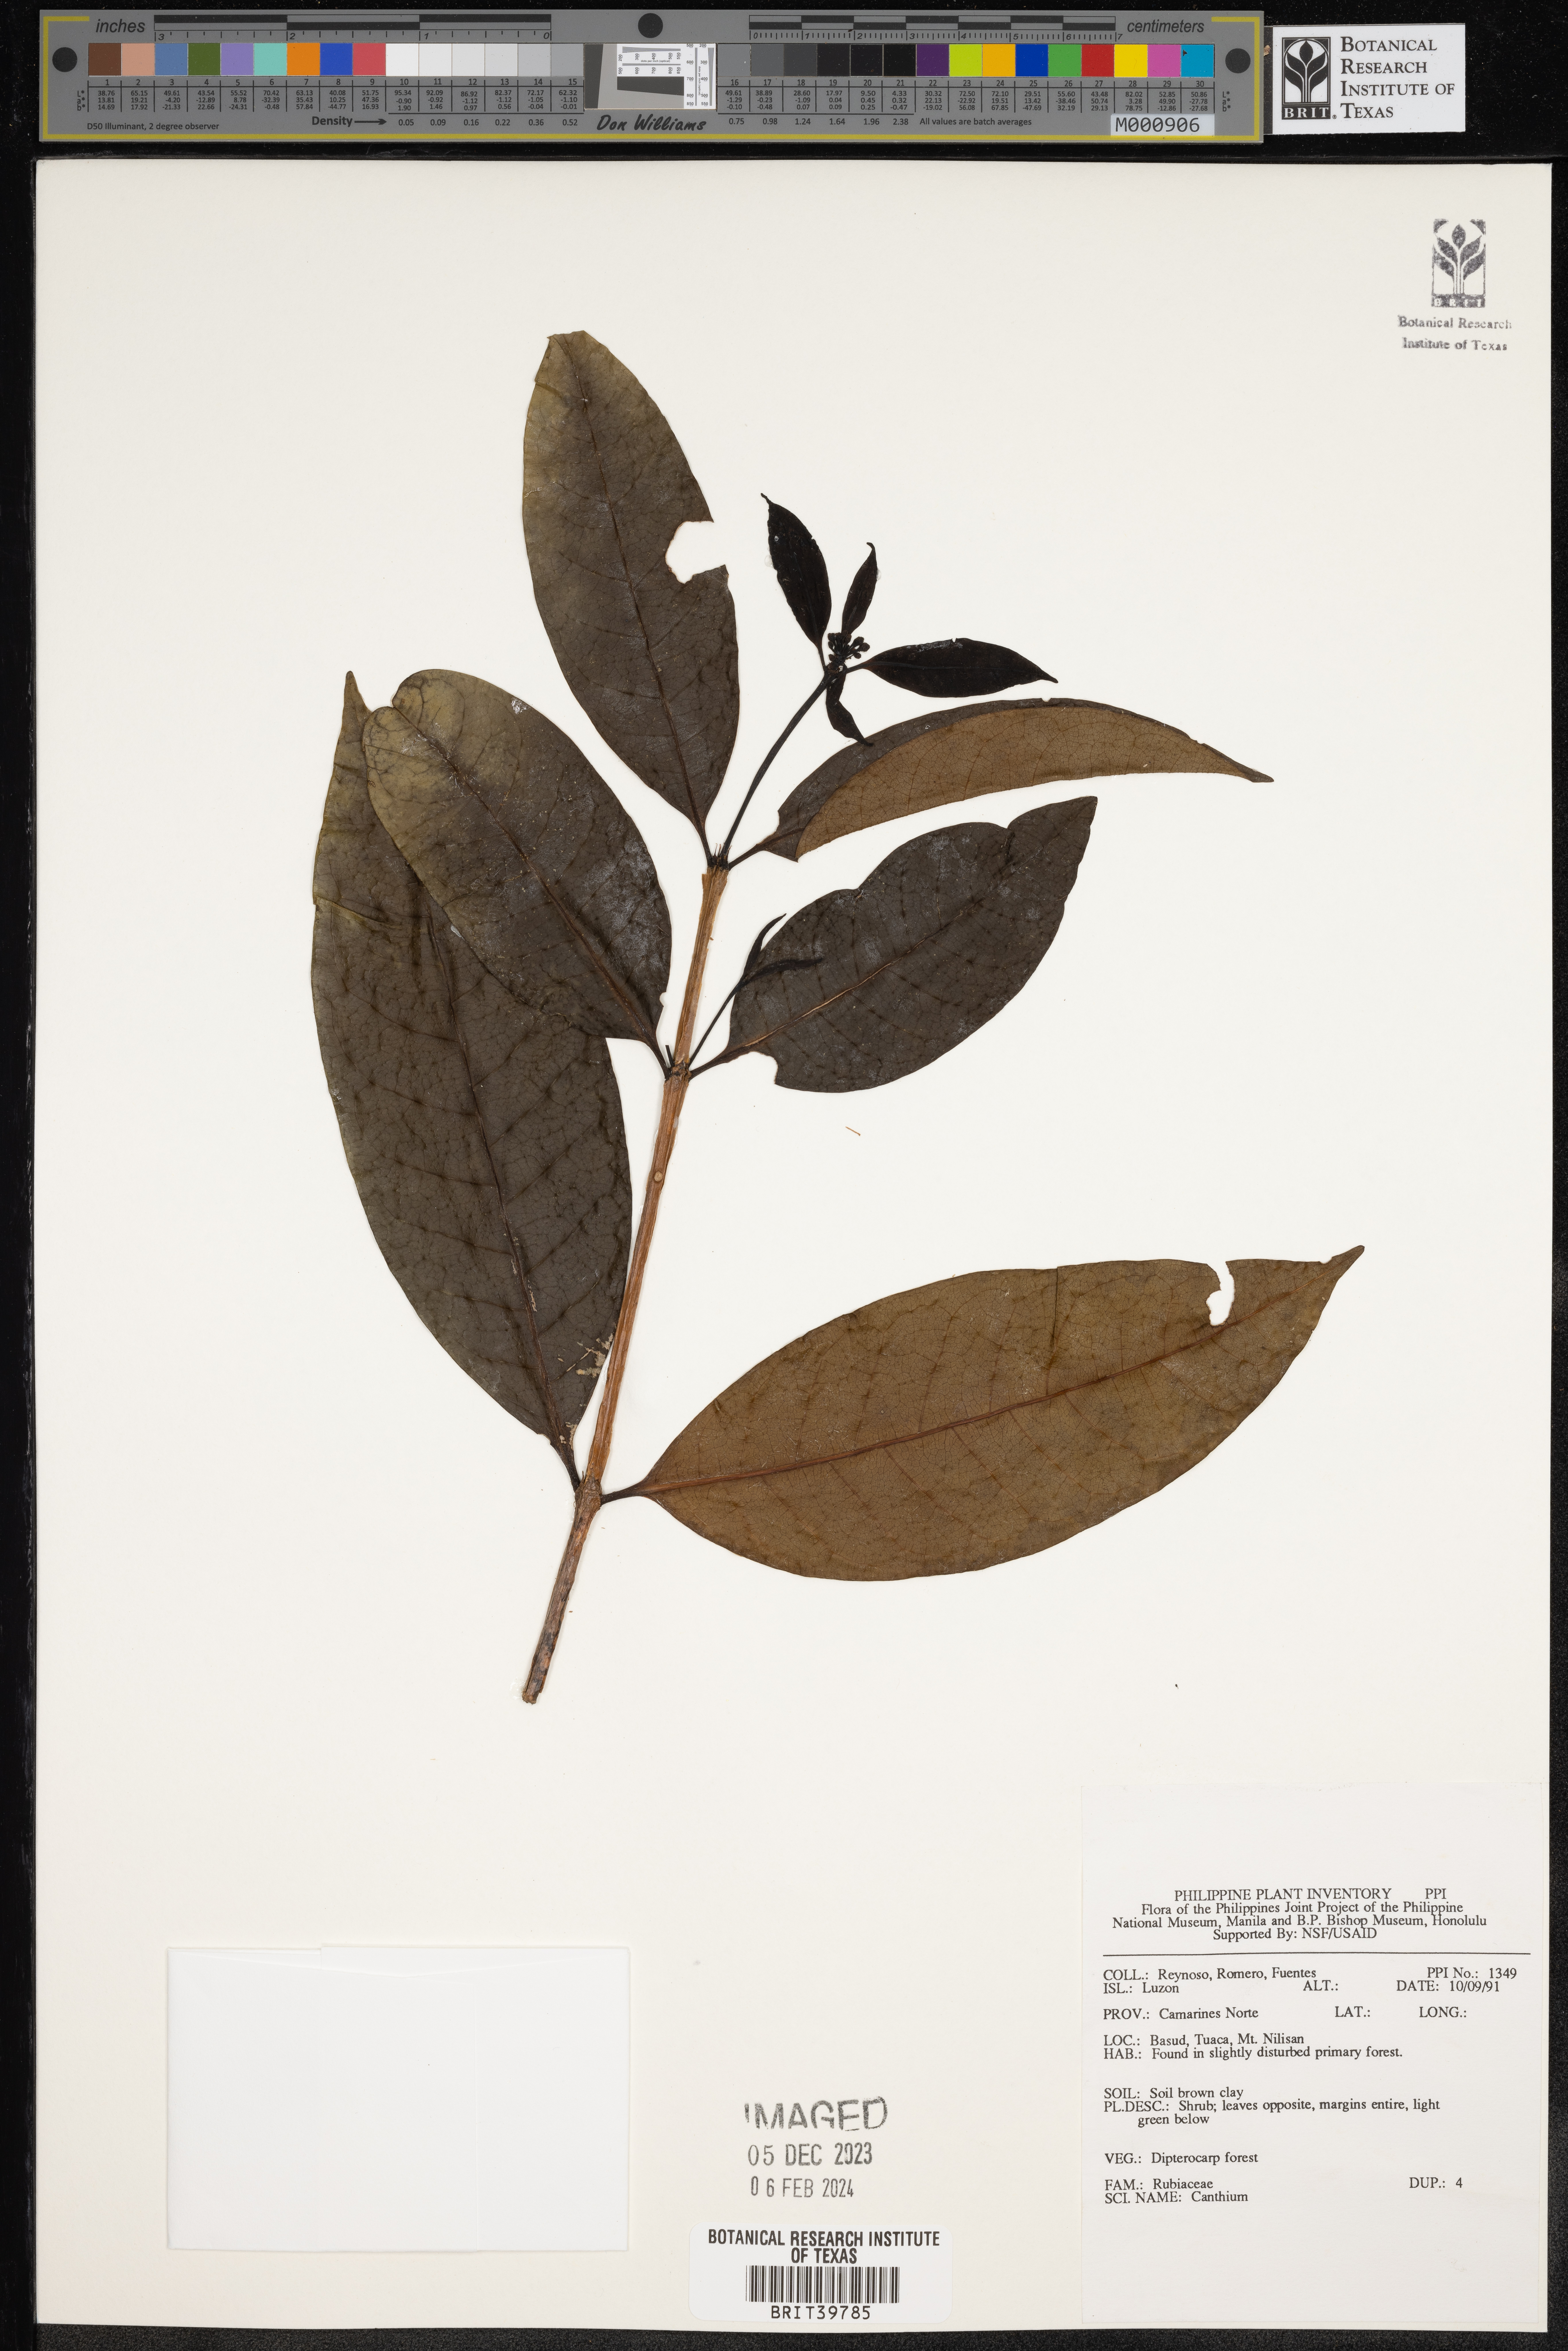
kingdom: Plantae
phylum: Tracheophyta
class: Magnoliopsida
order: Gentianales
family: Rubiaceae
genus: Canthium
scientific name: Canthium
